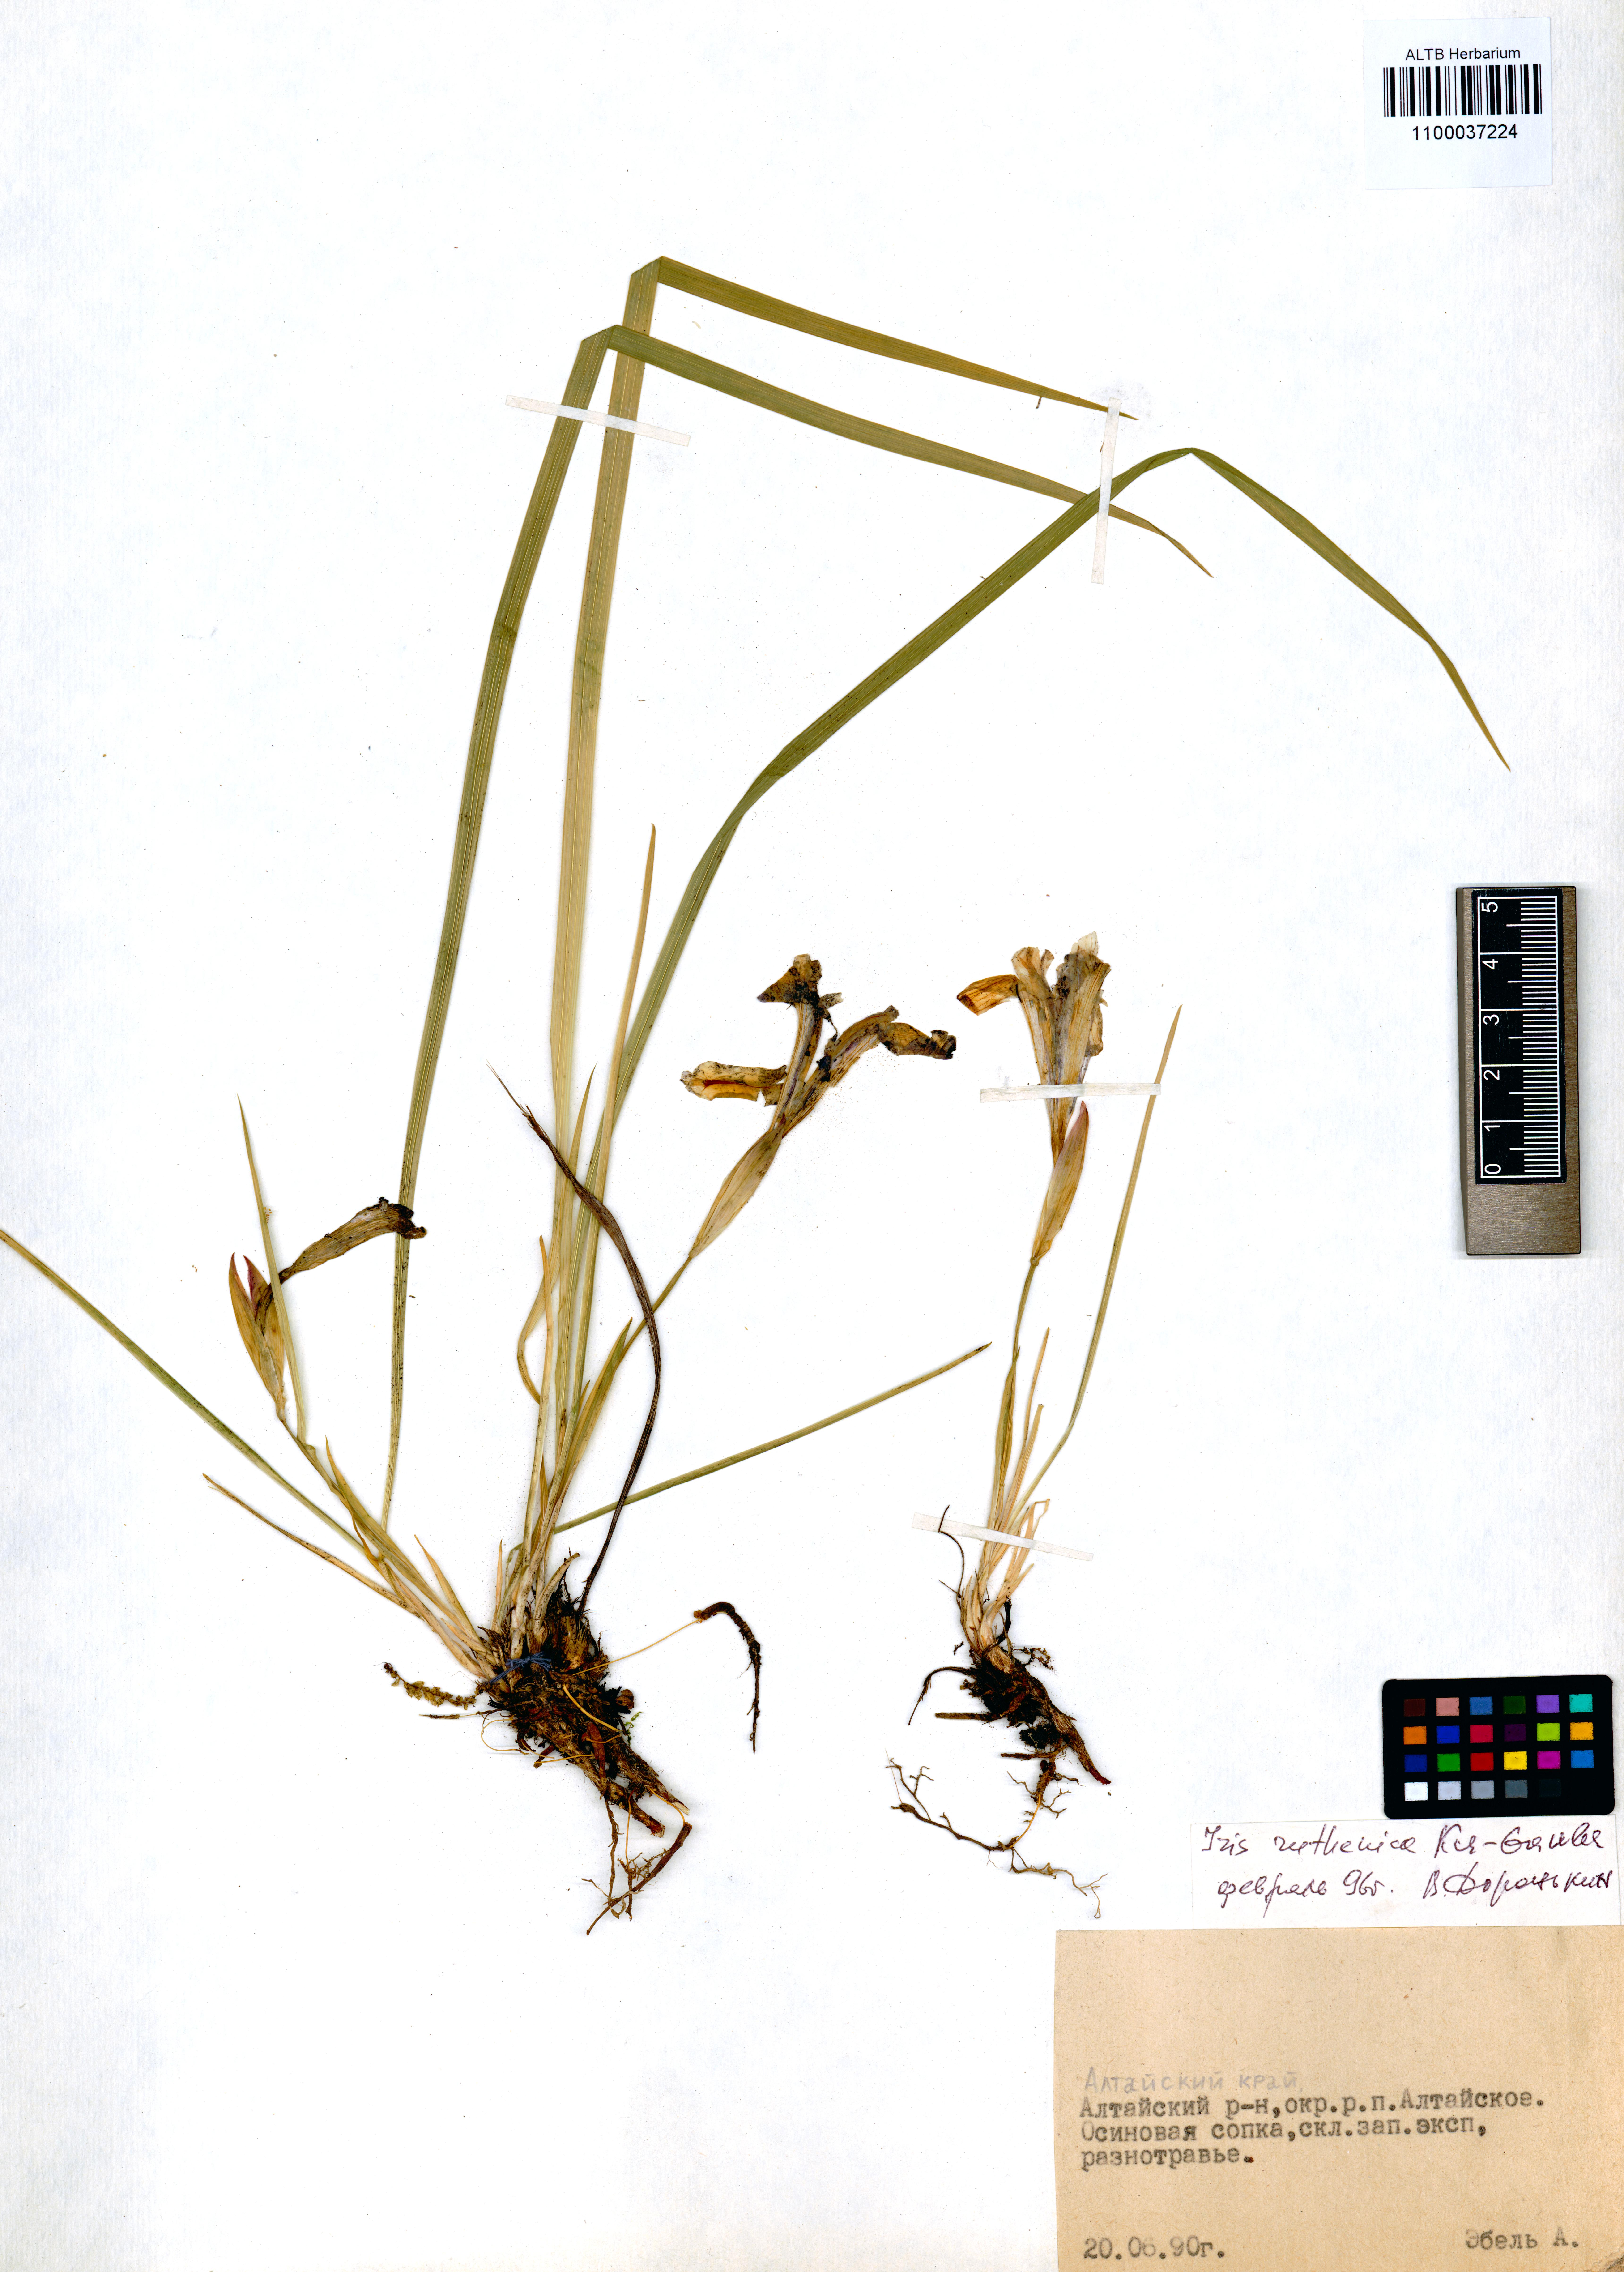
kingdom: Plantae
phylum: Tracheophyta
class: Liliopsida
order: Asparagales
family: Iridaceae
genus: Iris
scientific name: Iris ruthenica
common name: Purple-bract iris
